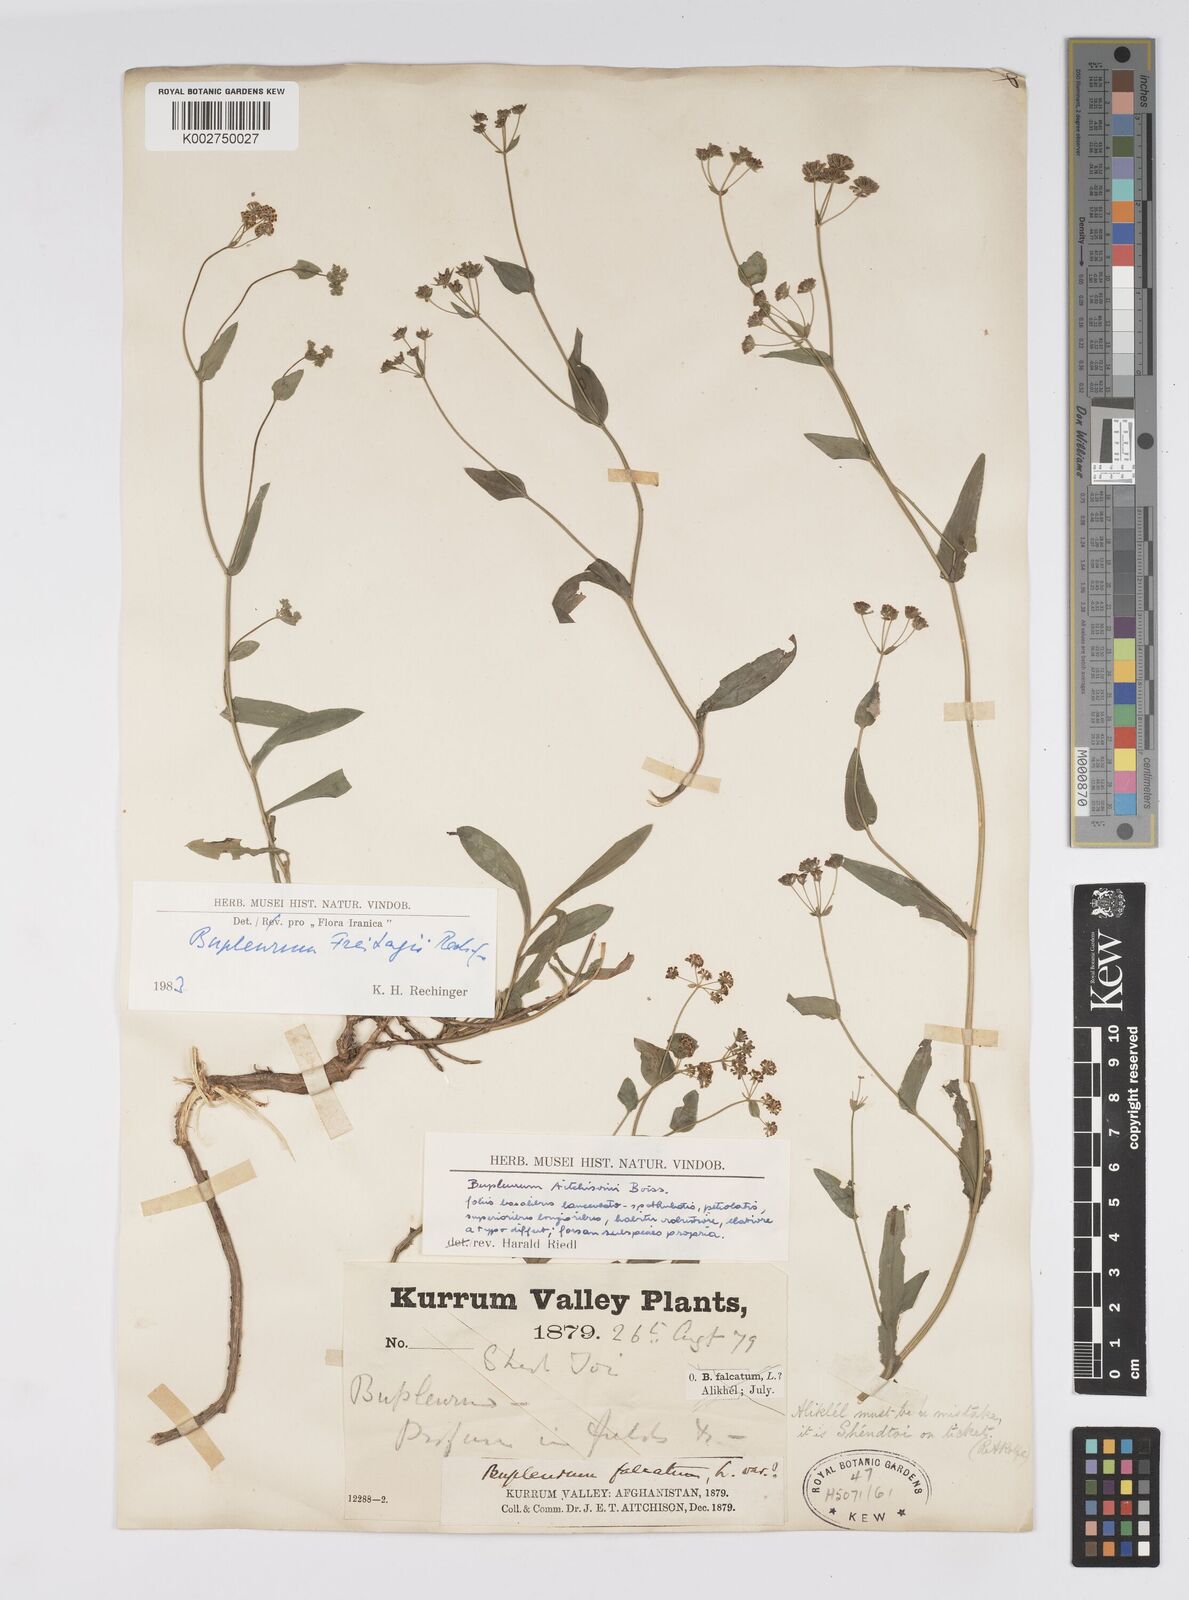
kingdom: Plantae
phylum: Tracheophyta
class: Magnoliopsida
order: Apiales
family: Apiaceae
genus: Bupleurum
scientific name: Bupleurum freitagii
